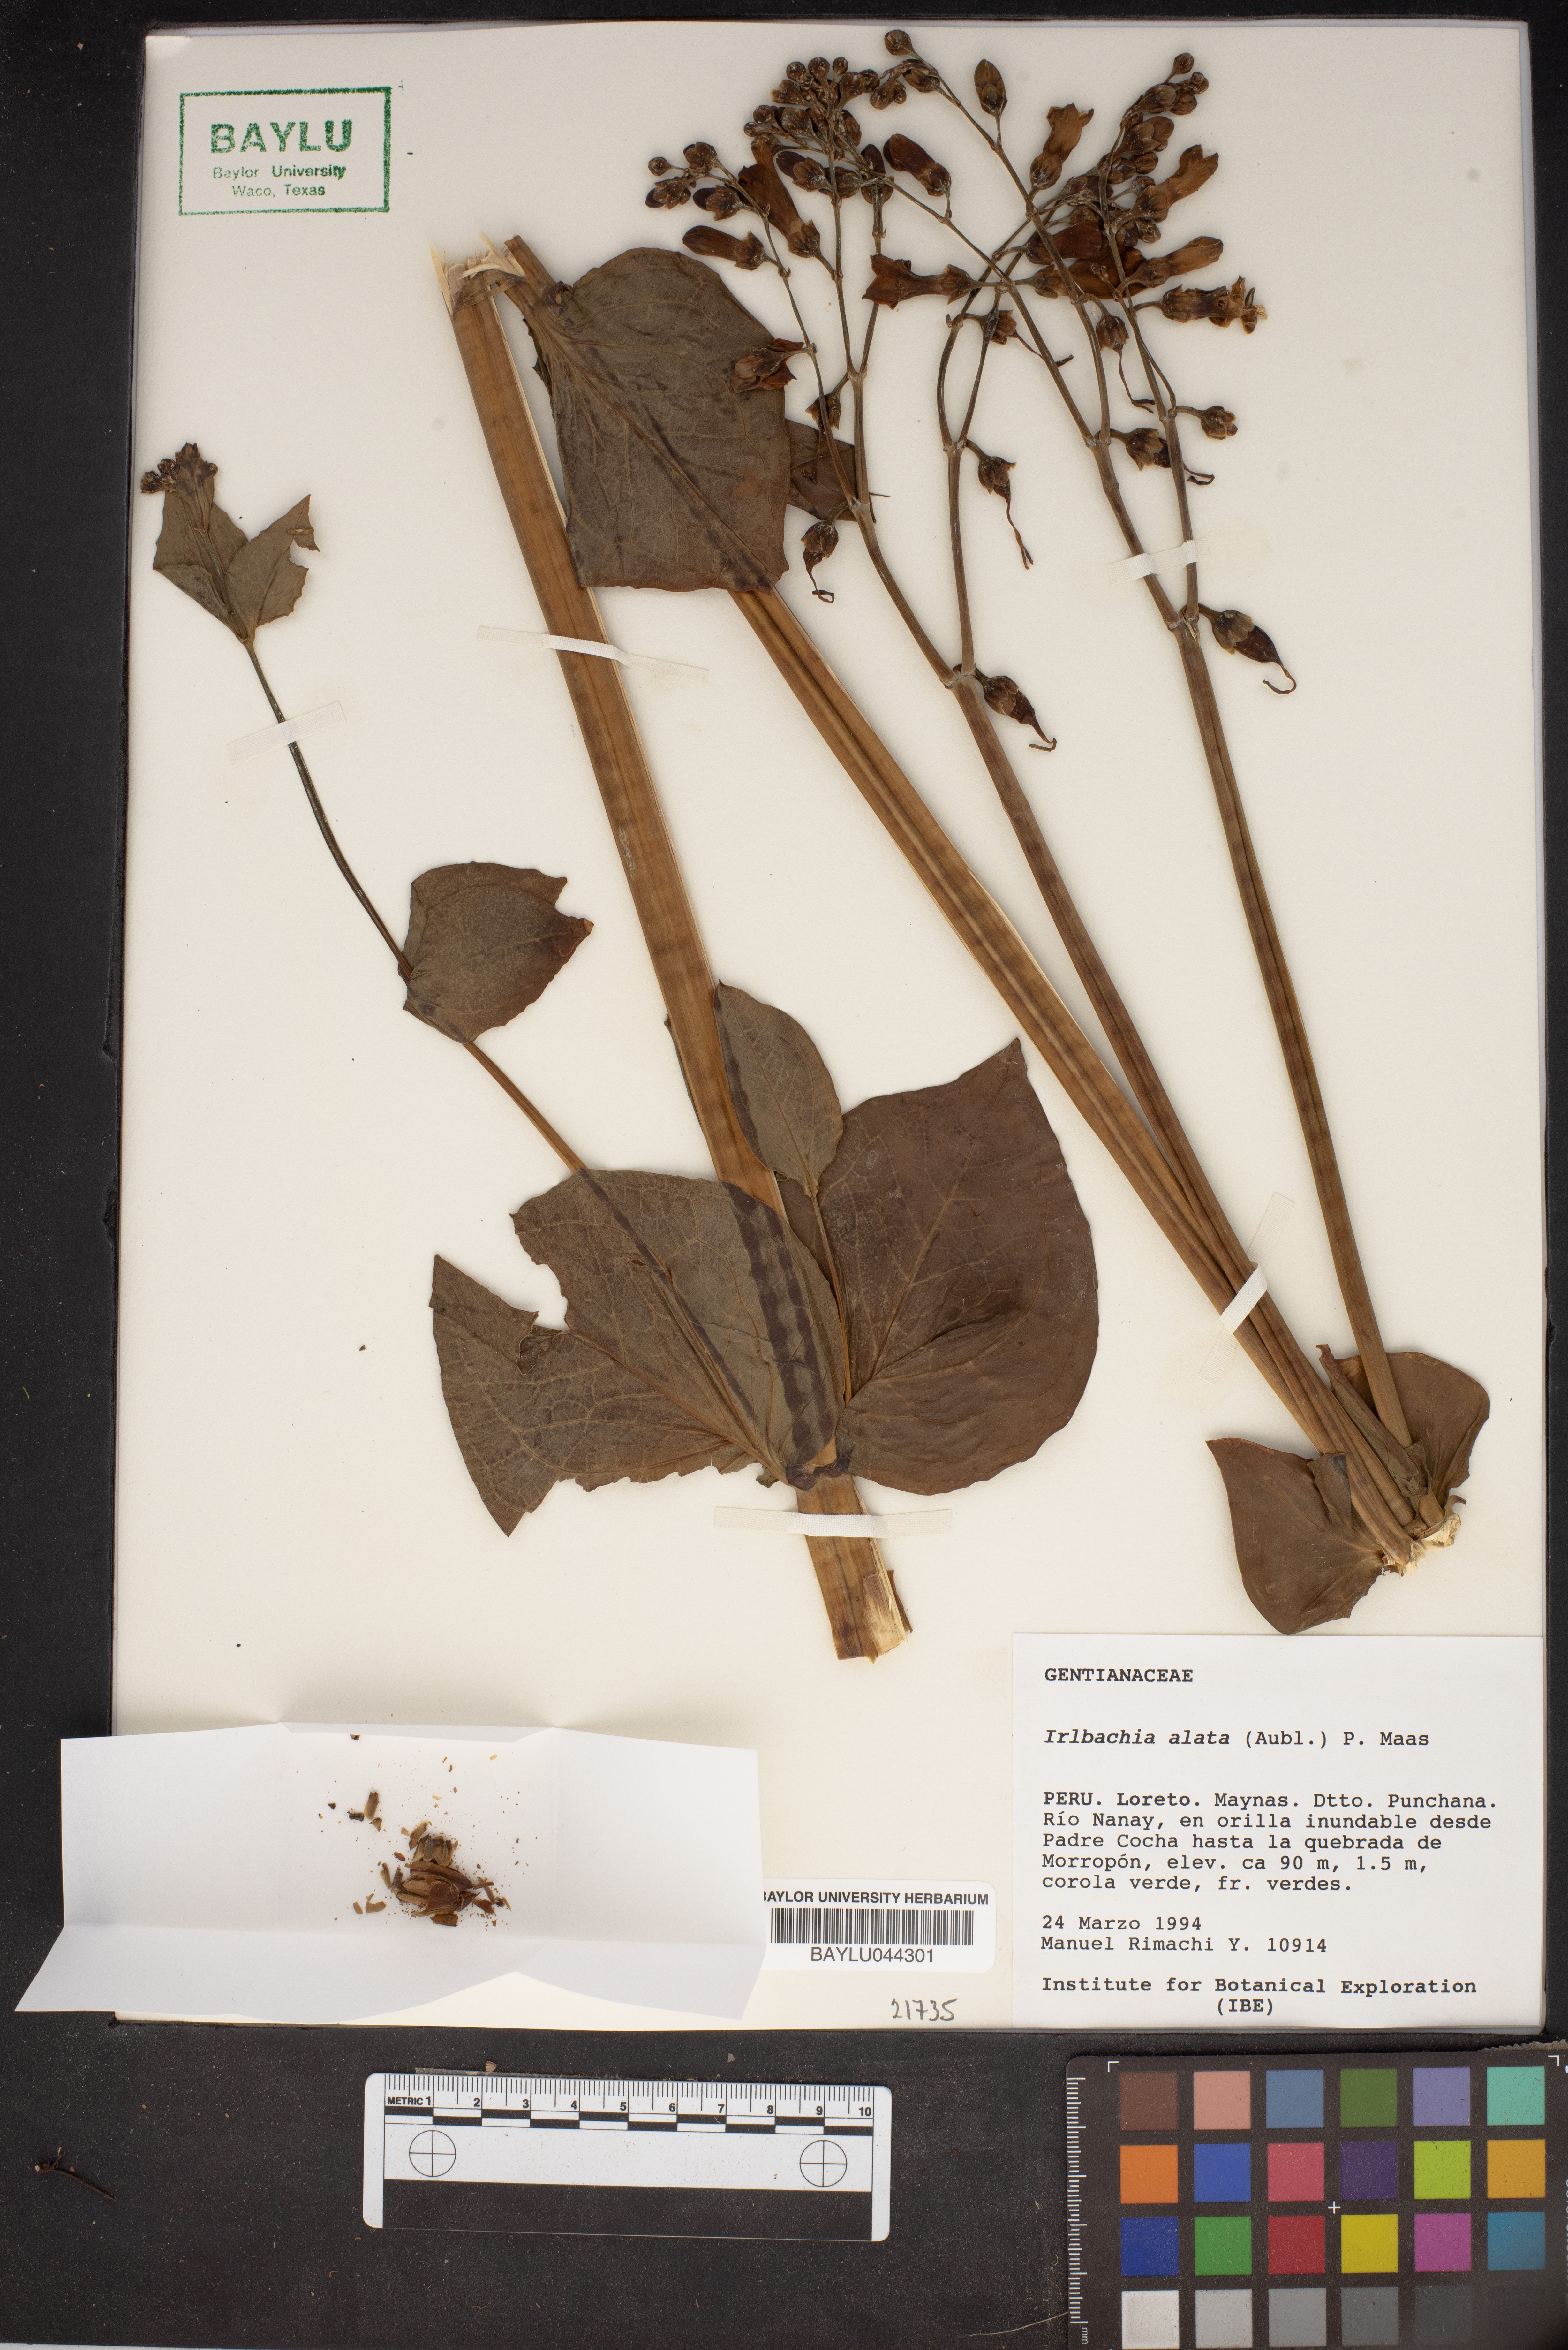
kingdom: Plantae
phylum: Tracheophyta
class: Magnoliopsida
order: Gentianales
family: Gentianaceae
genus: Chelonanthus
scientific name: Chelonanthus alatus
